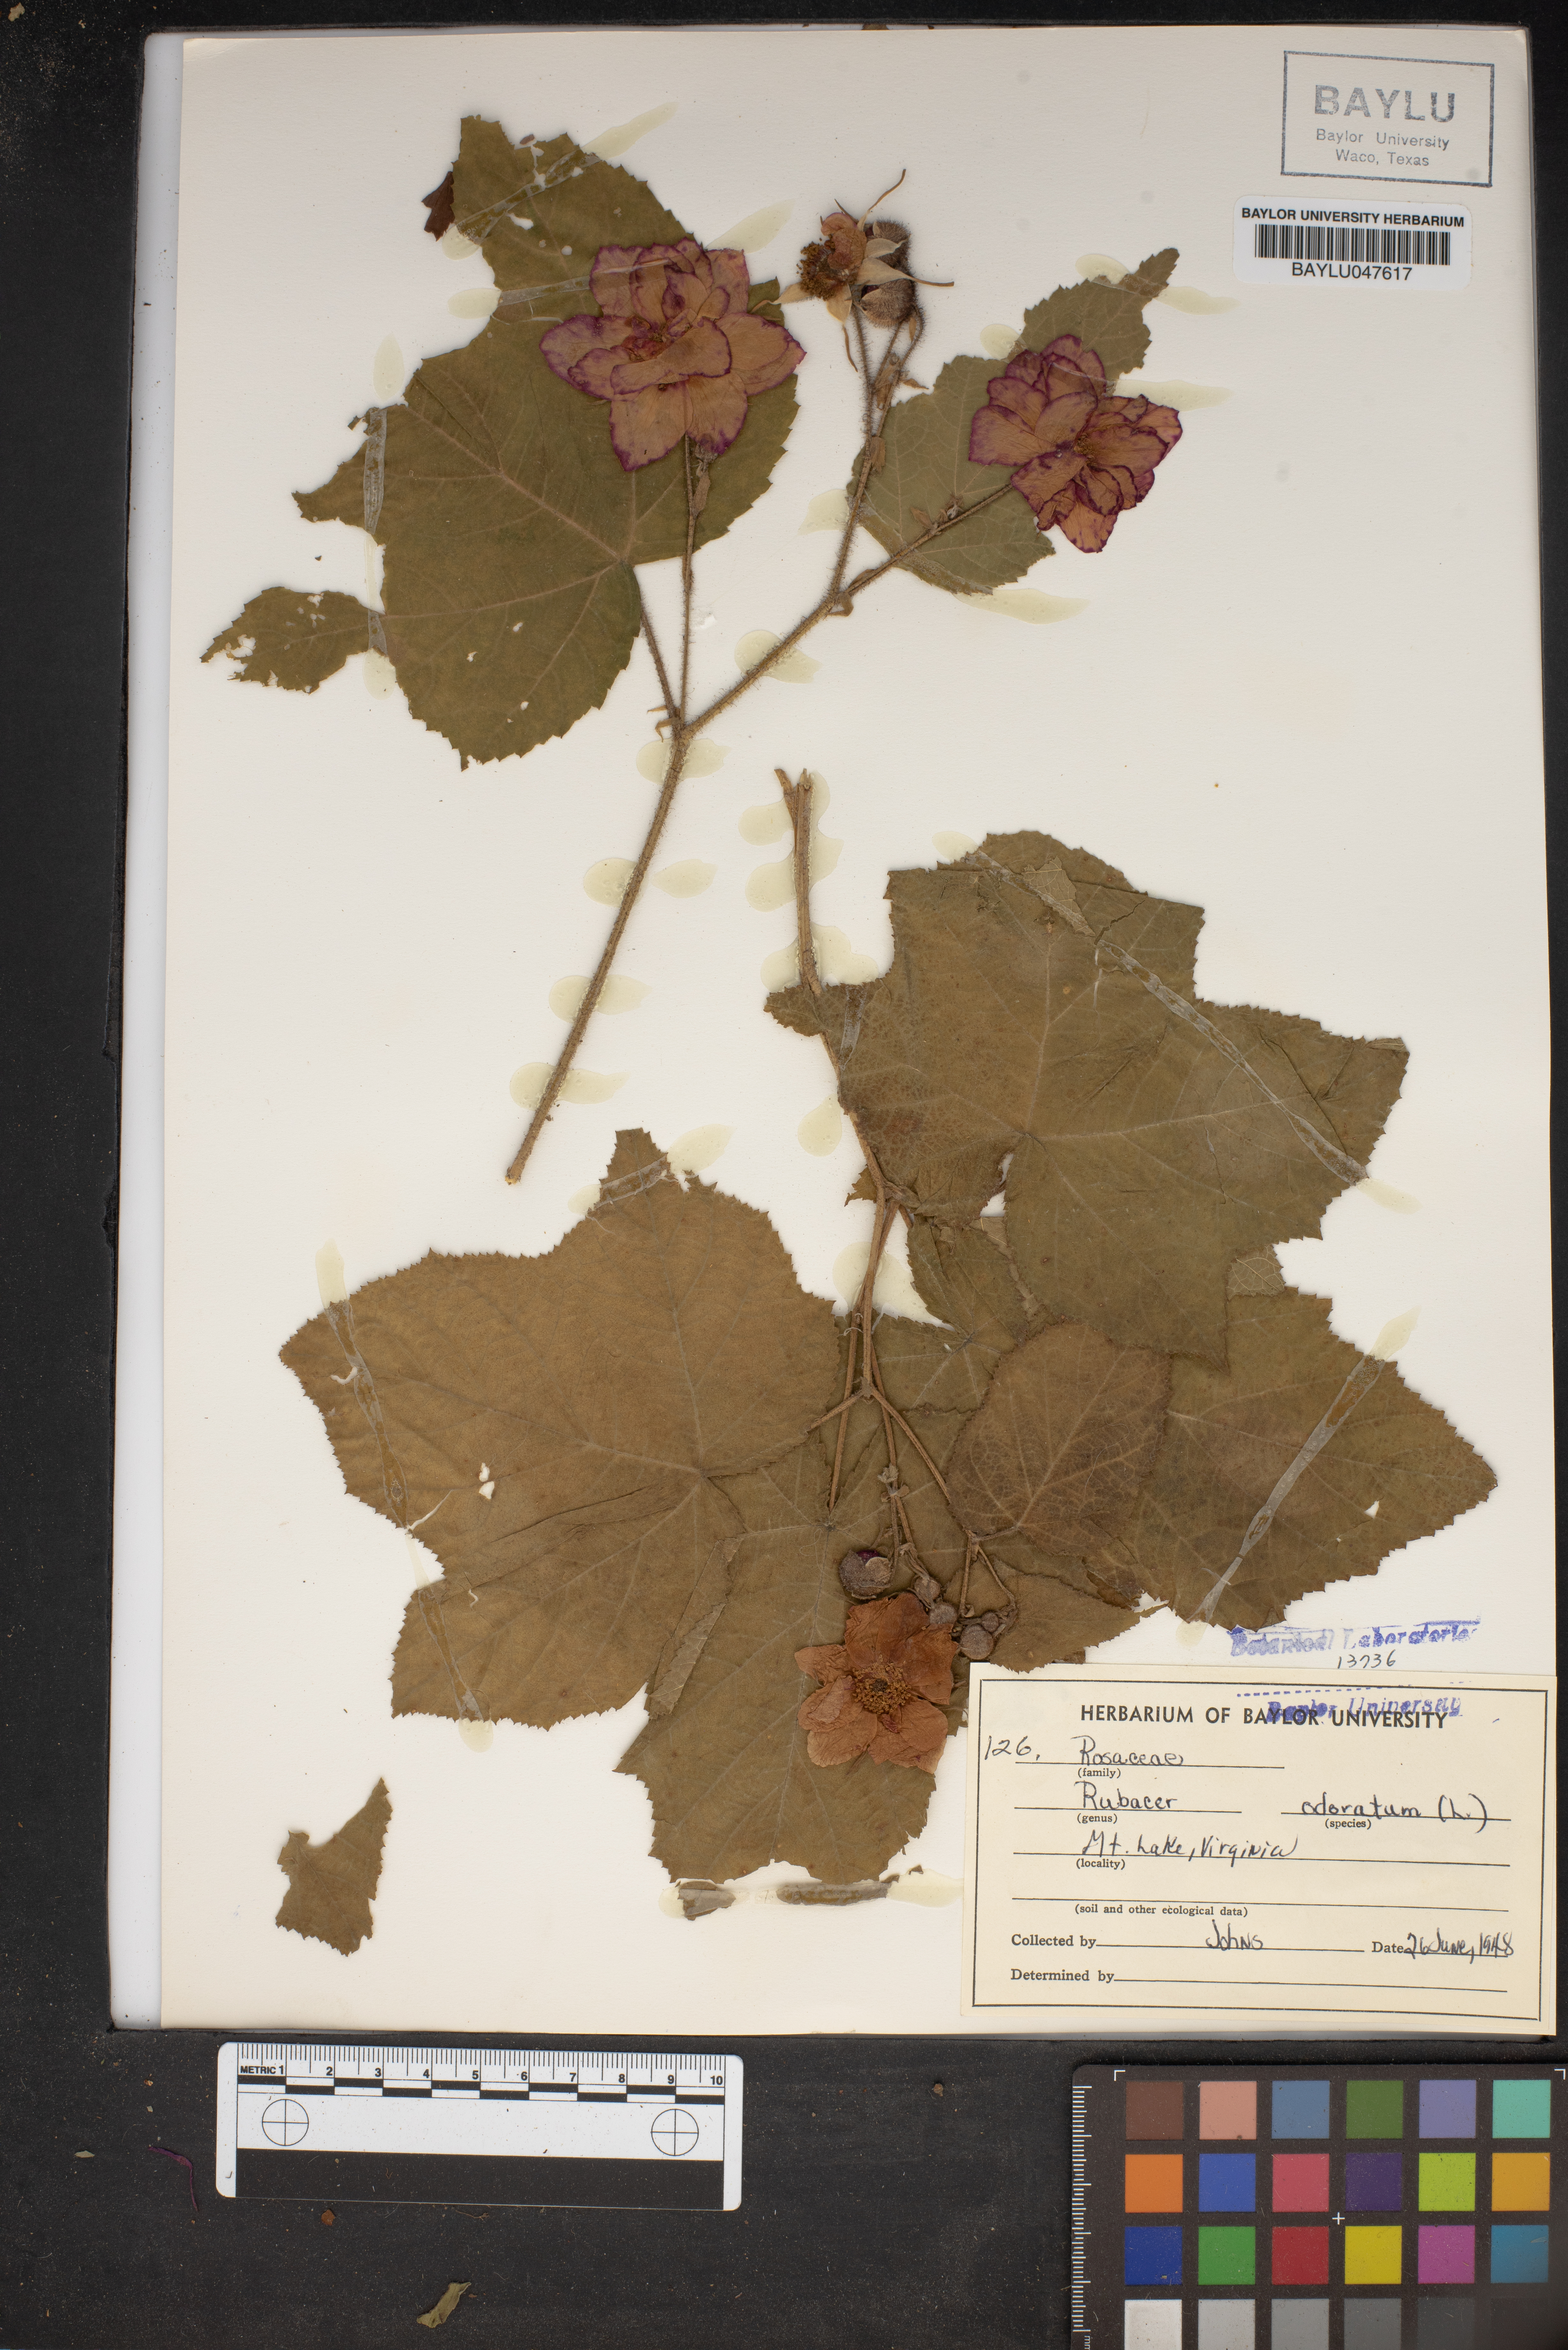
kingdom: Plantae
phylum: Tracheophyta
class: Magnoliopsida
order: Rosales
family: Rosaceae
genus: Rubus
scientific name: Rubus odoratus
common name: Purple-flowered raspberry
